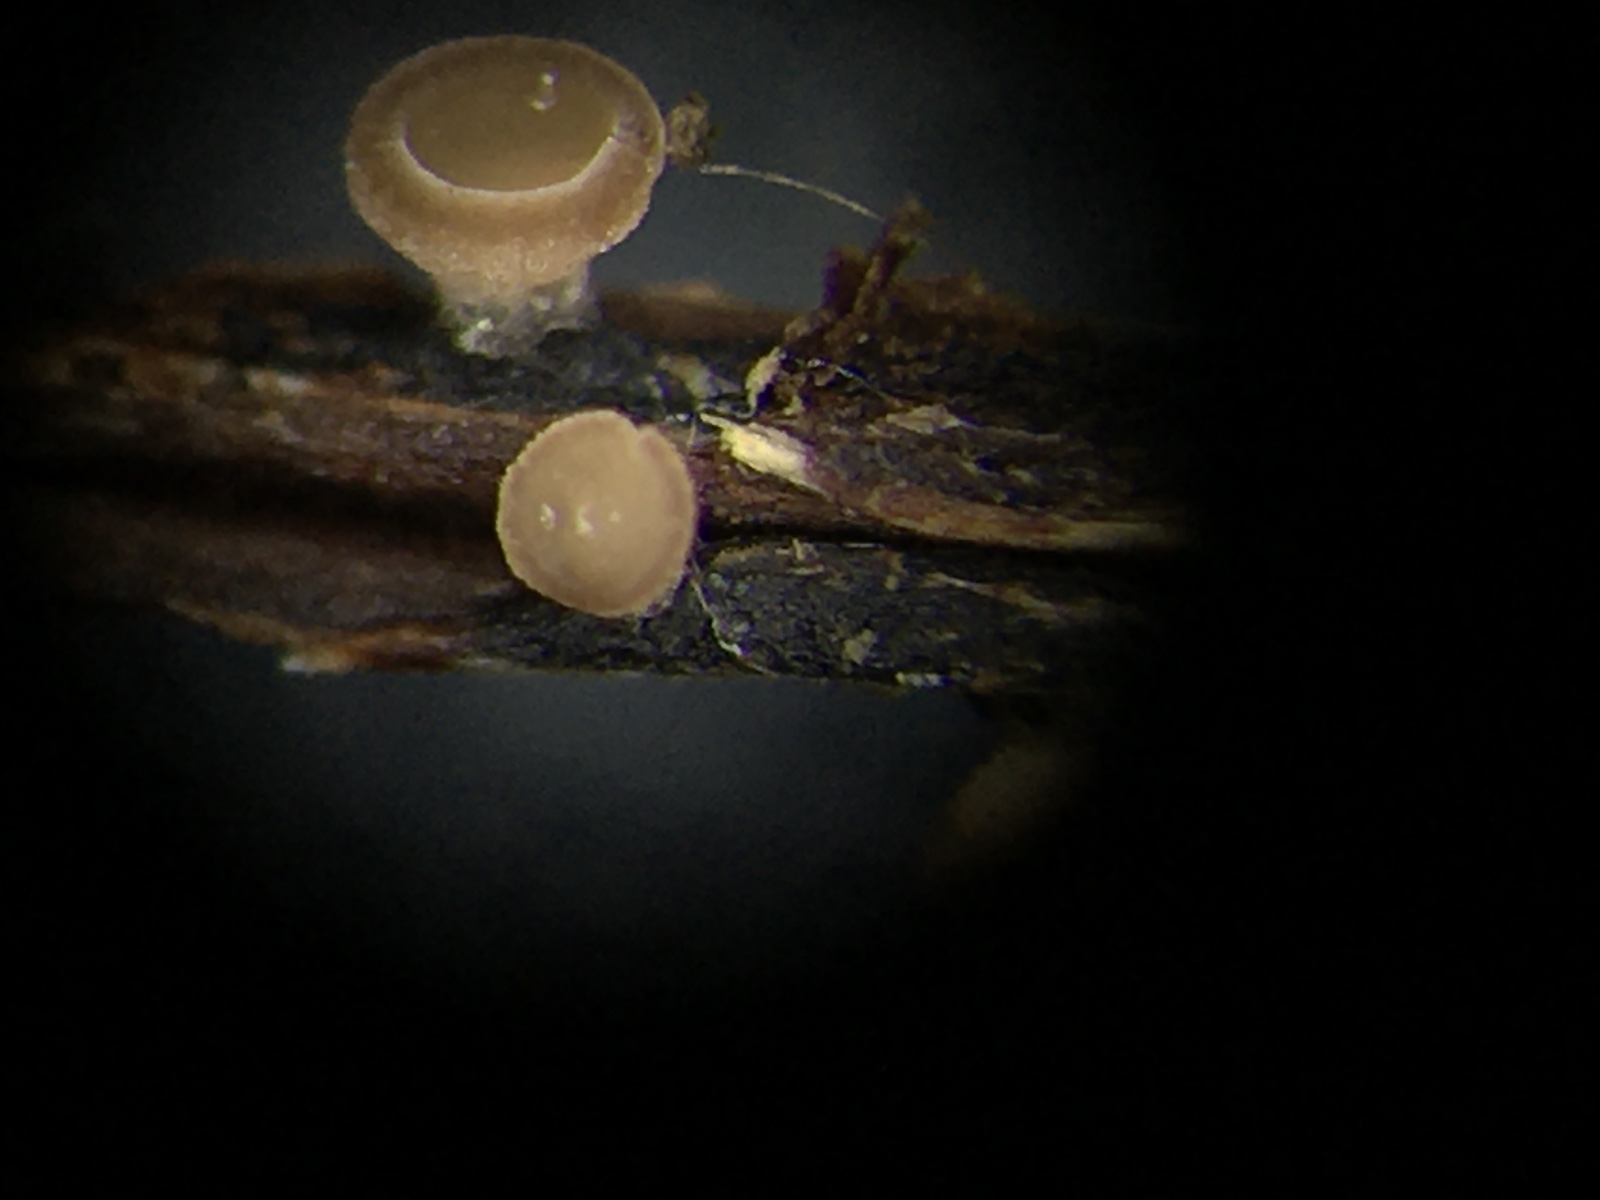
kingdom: Fungi
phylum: Ascomycota
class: Leotiomycetes
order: Helotiales
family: Rutstroemiaceae
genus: Rutstroemia
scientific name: Rutstroemia conformata
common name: elleblads-brunskive
